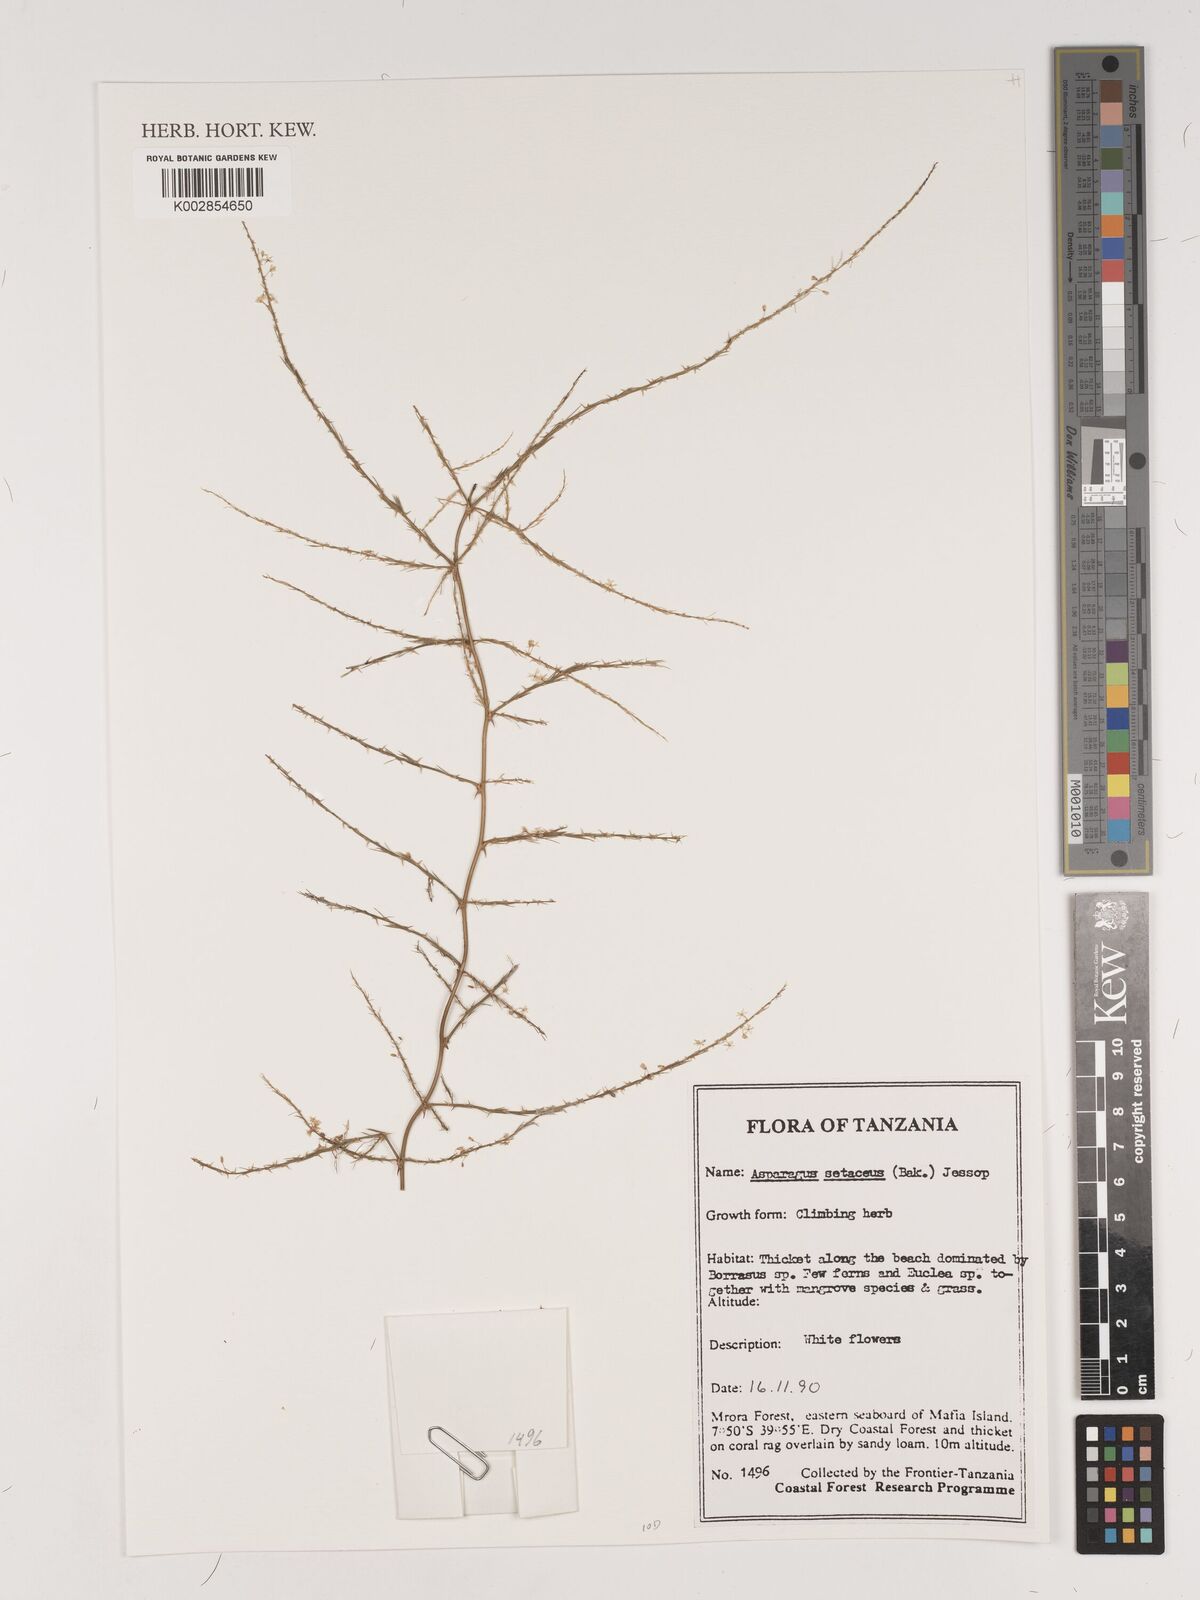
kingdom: Plantae
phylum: Tracheophyta
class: Liliopsida
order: Asparagales
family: Asparagaceae
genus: Asparagus
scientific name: Asparagus setaceus
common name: Common asparagus fern
